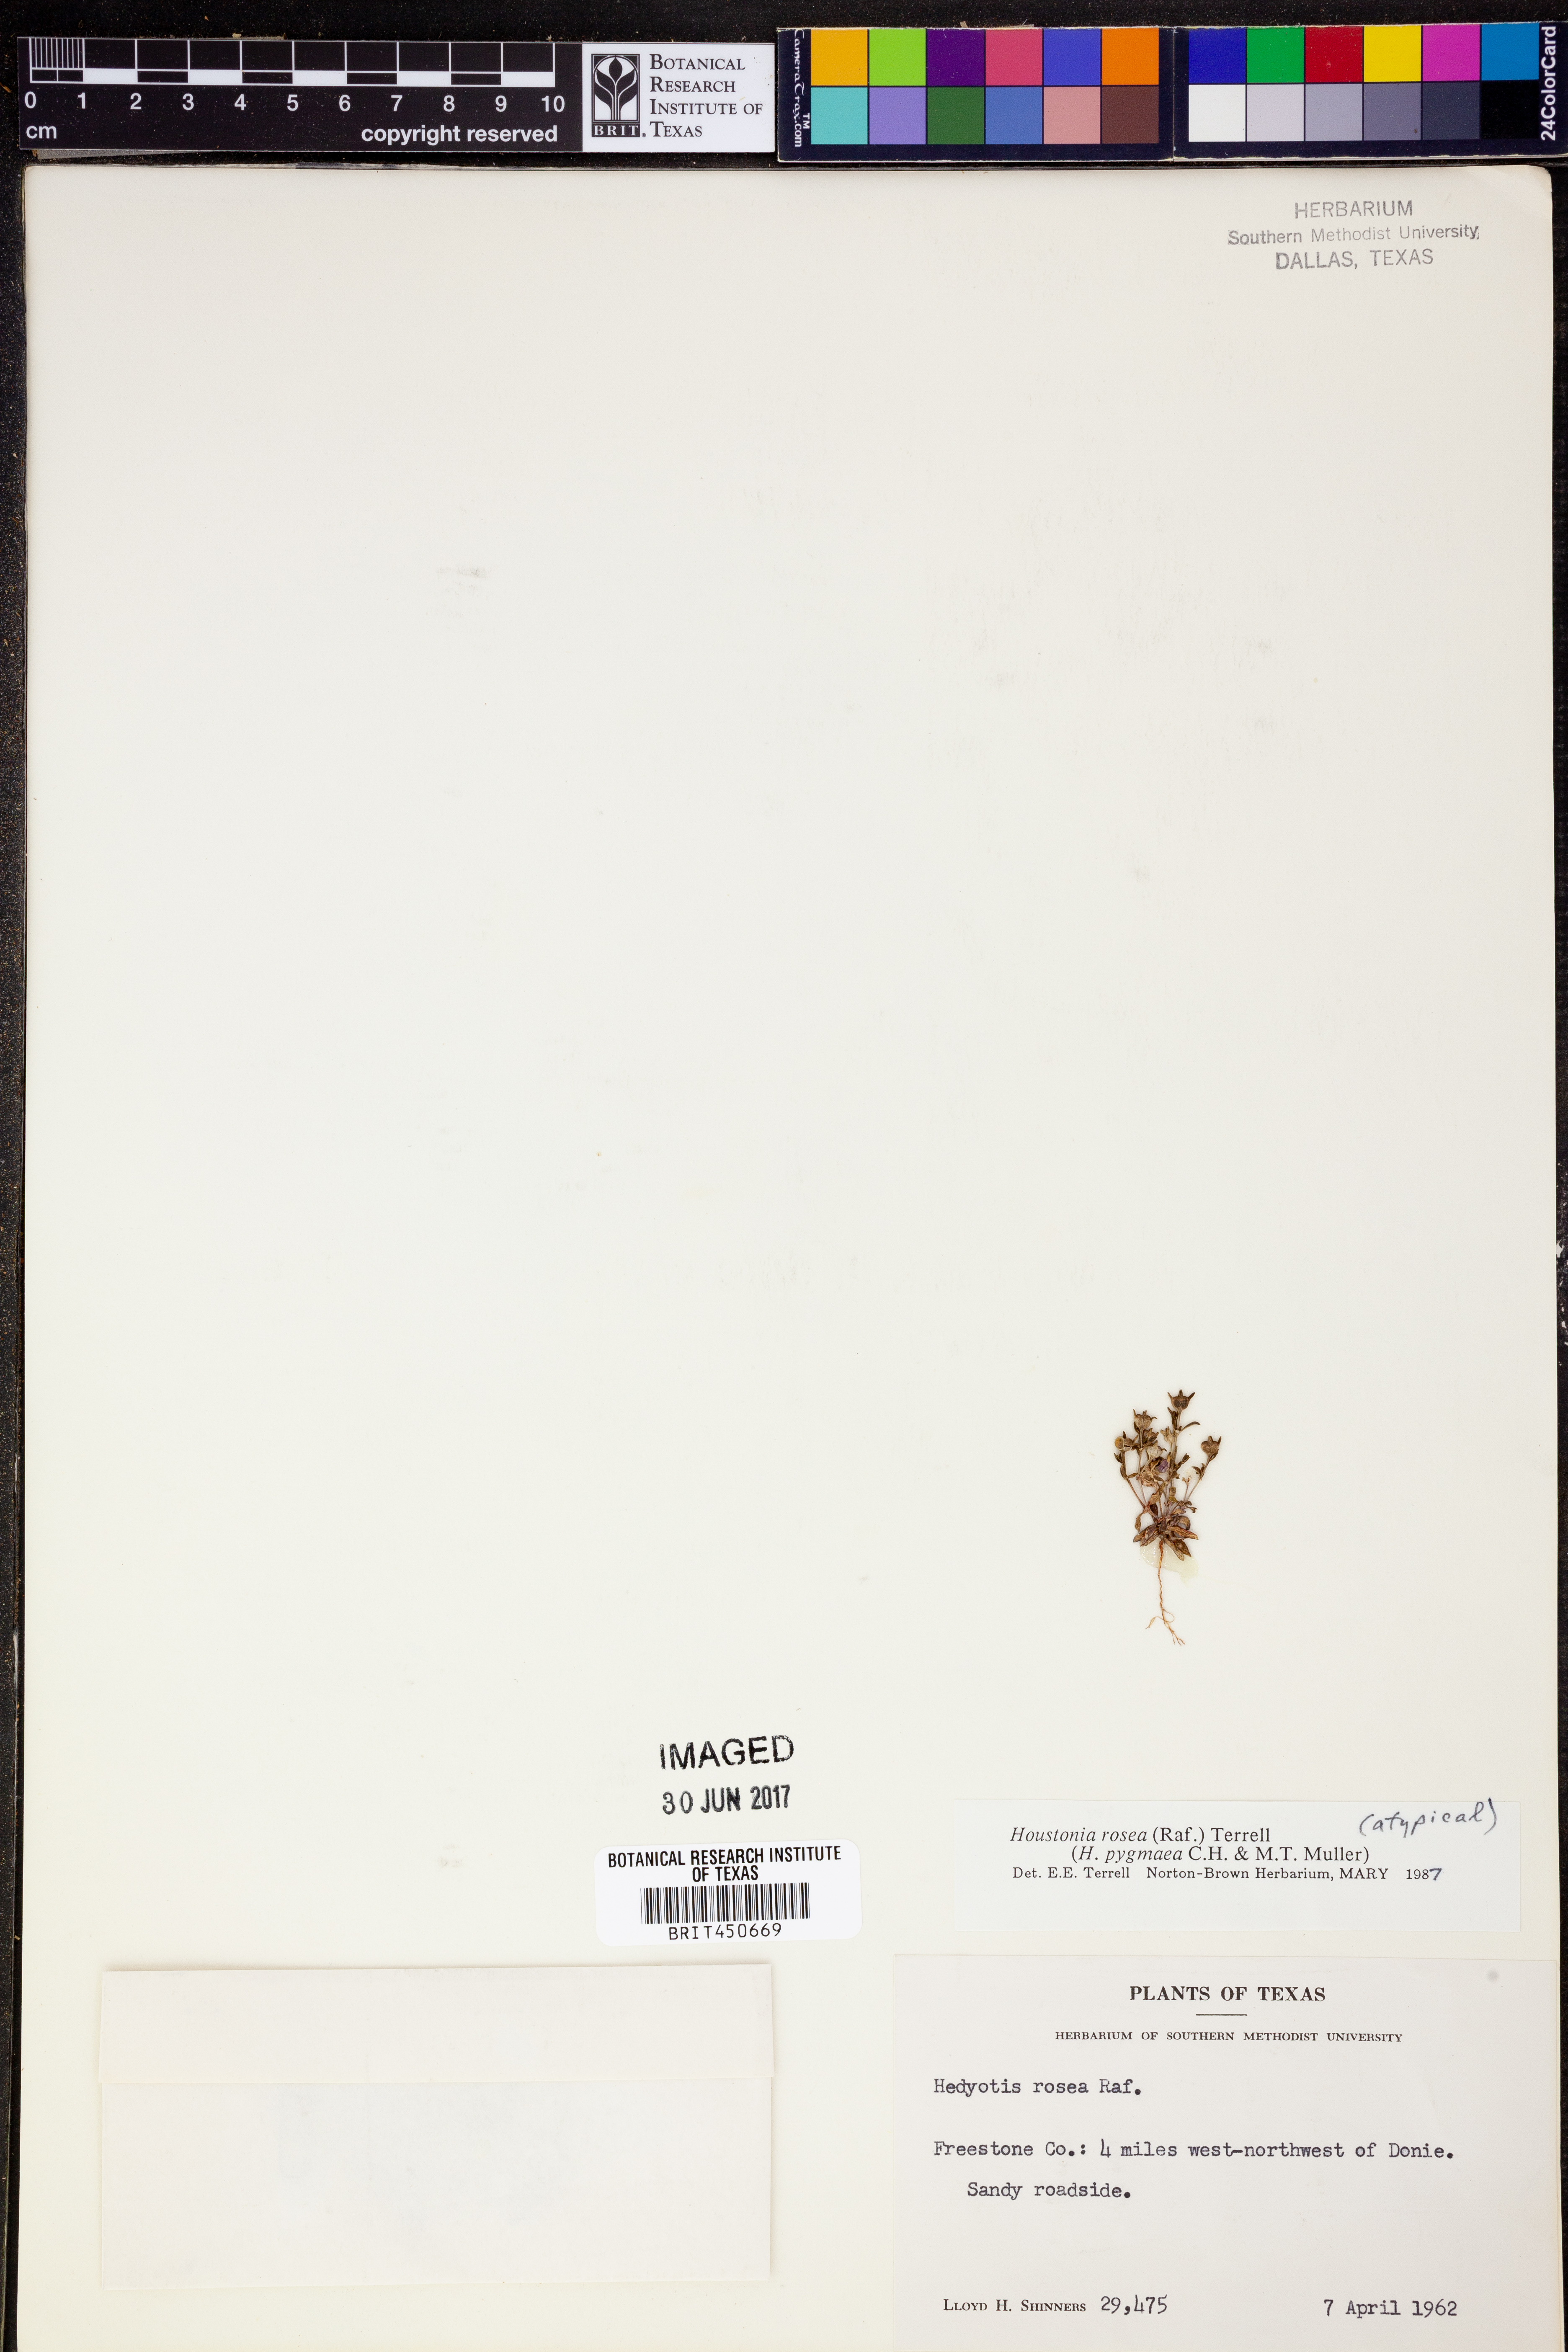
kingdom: Plantae
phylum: Tracheophyta
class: Magnoliopsida
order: Gentianales
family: Rubiaceae
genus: Houstonia
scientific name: Houstonia rosea
